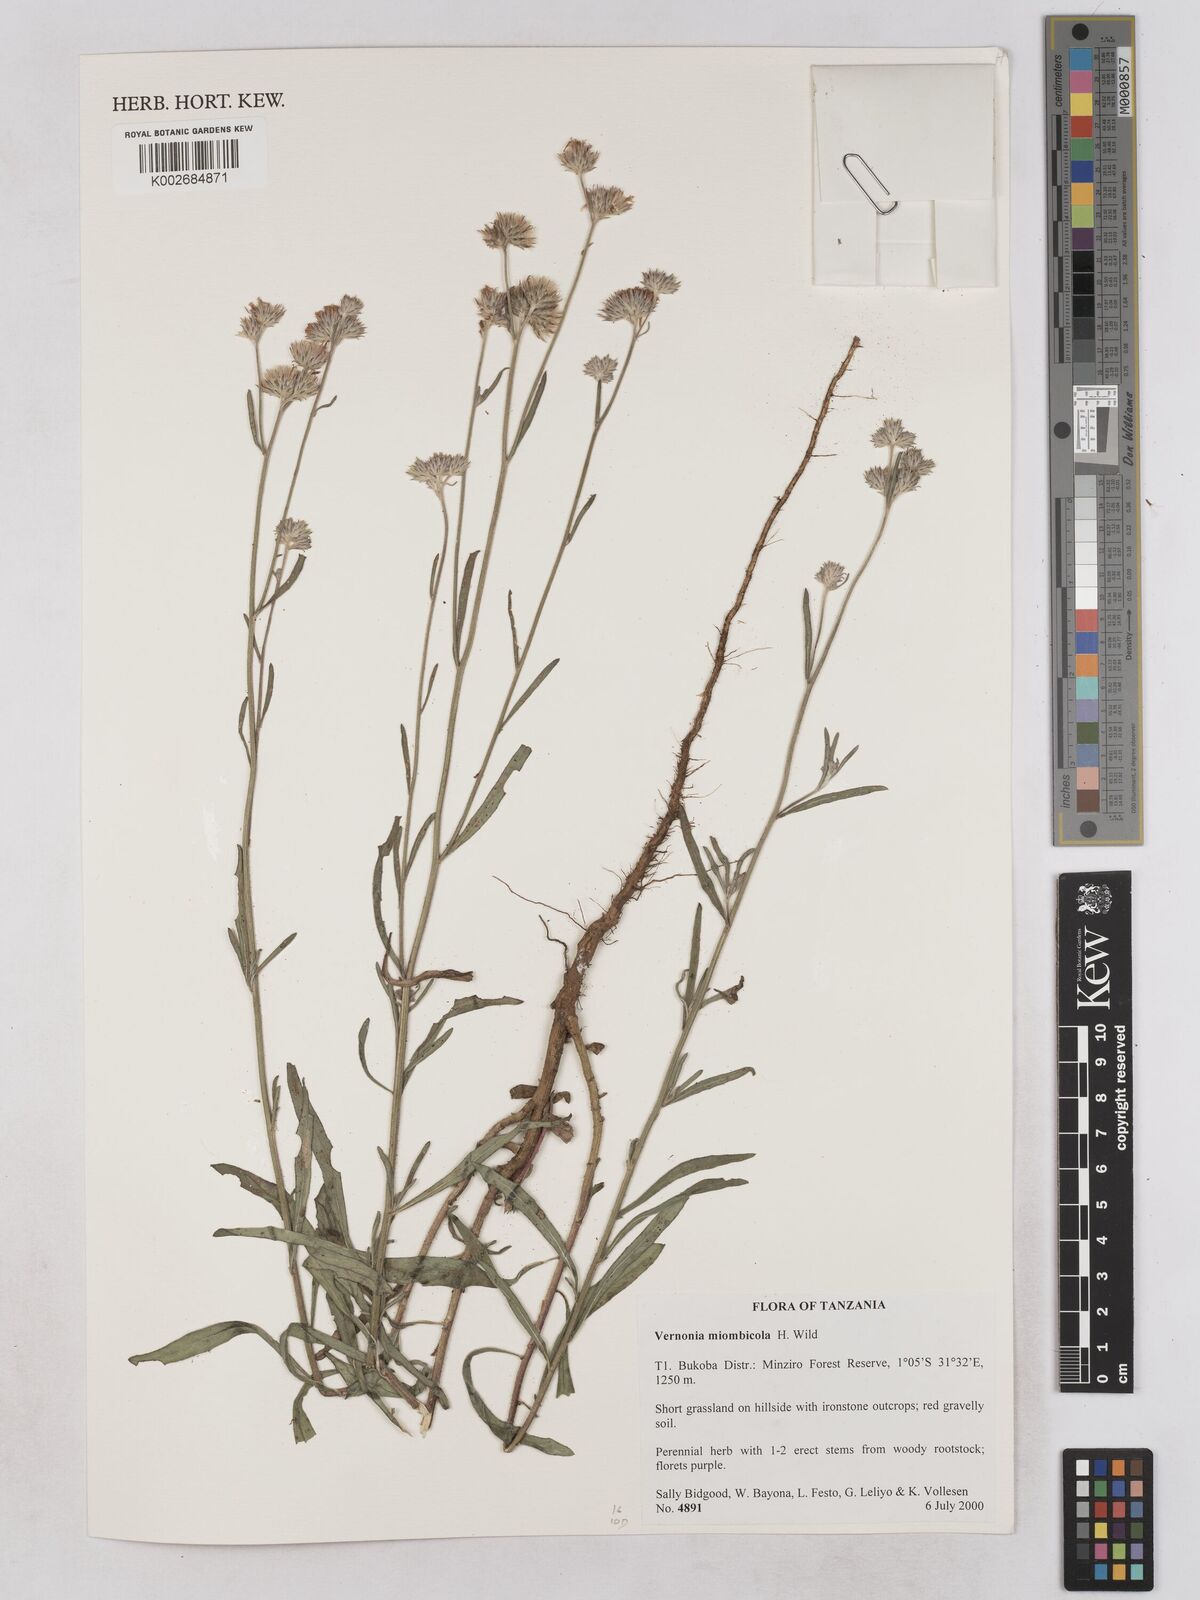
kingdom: Plantae
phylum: Tracheophyta
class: Magnoliopsida
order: Asterales
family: Asteraceae
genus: Vernonia
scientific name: Vernonia miombicola
